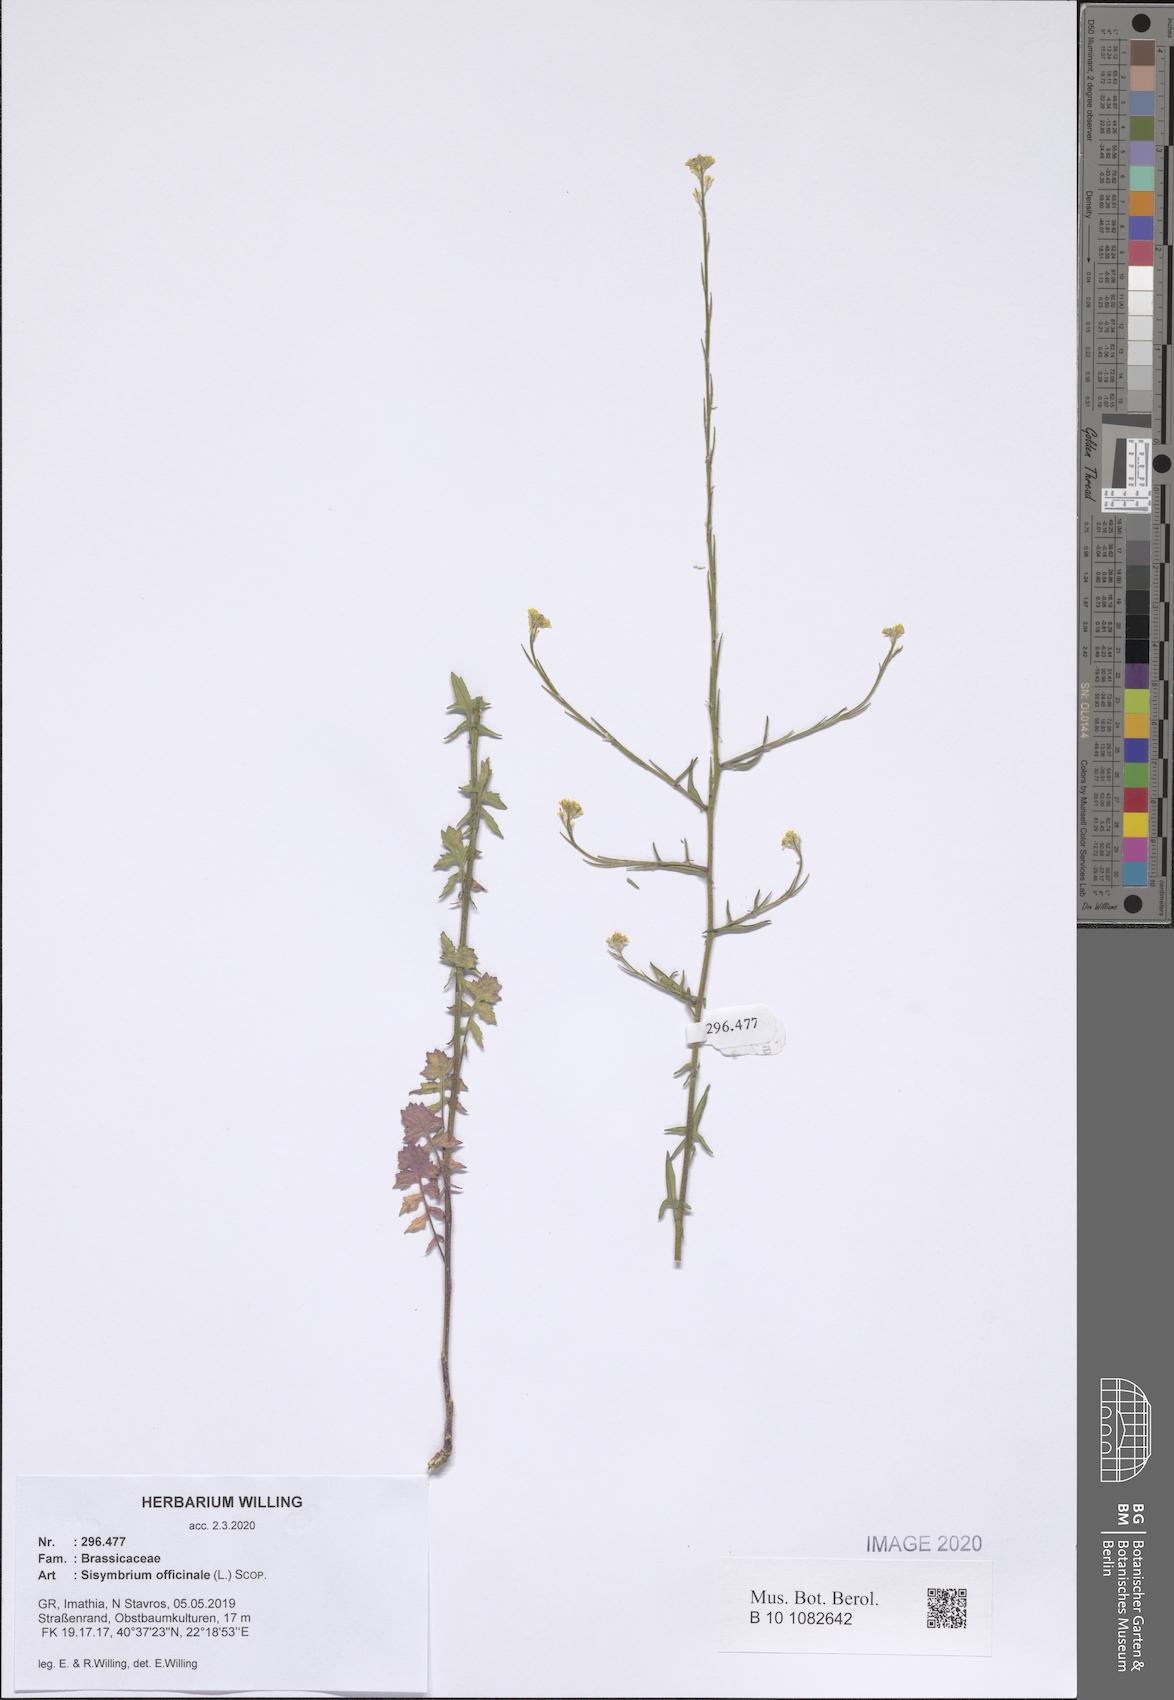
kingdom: Plantae
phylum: Tracheophyta
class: Magnoliopsida
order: Brassicales
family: Brassicaceae
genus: Sisymbrium
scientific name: Sisymbrium officinale
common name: Hedge mustard
